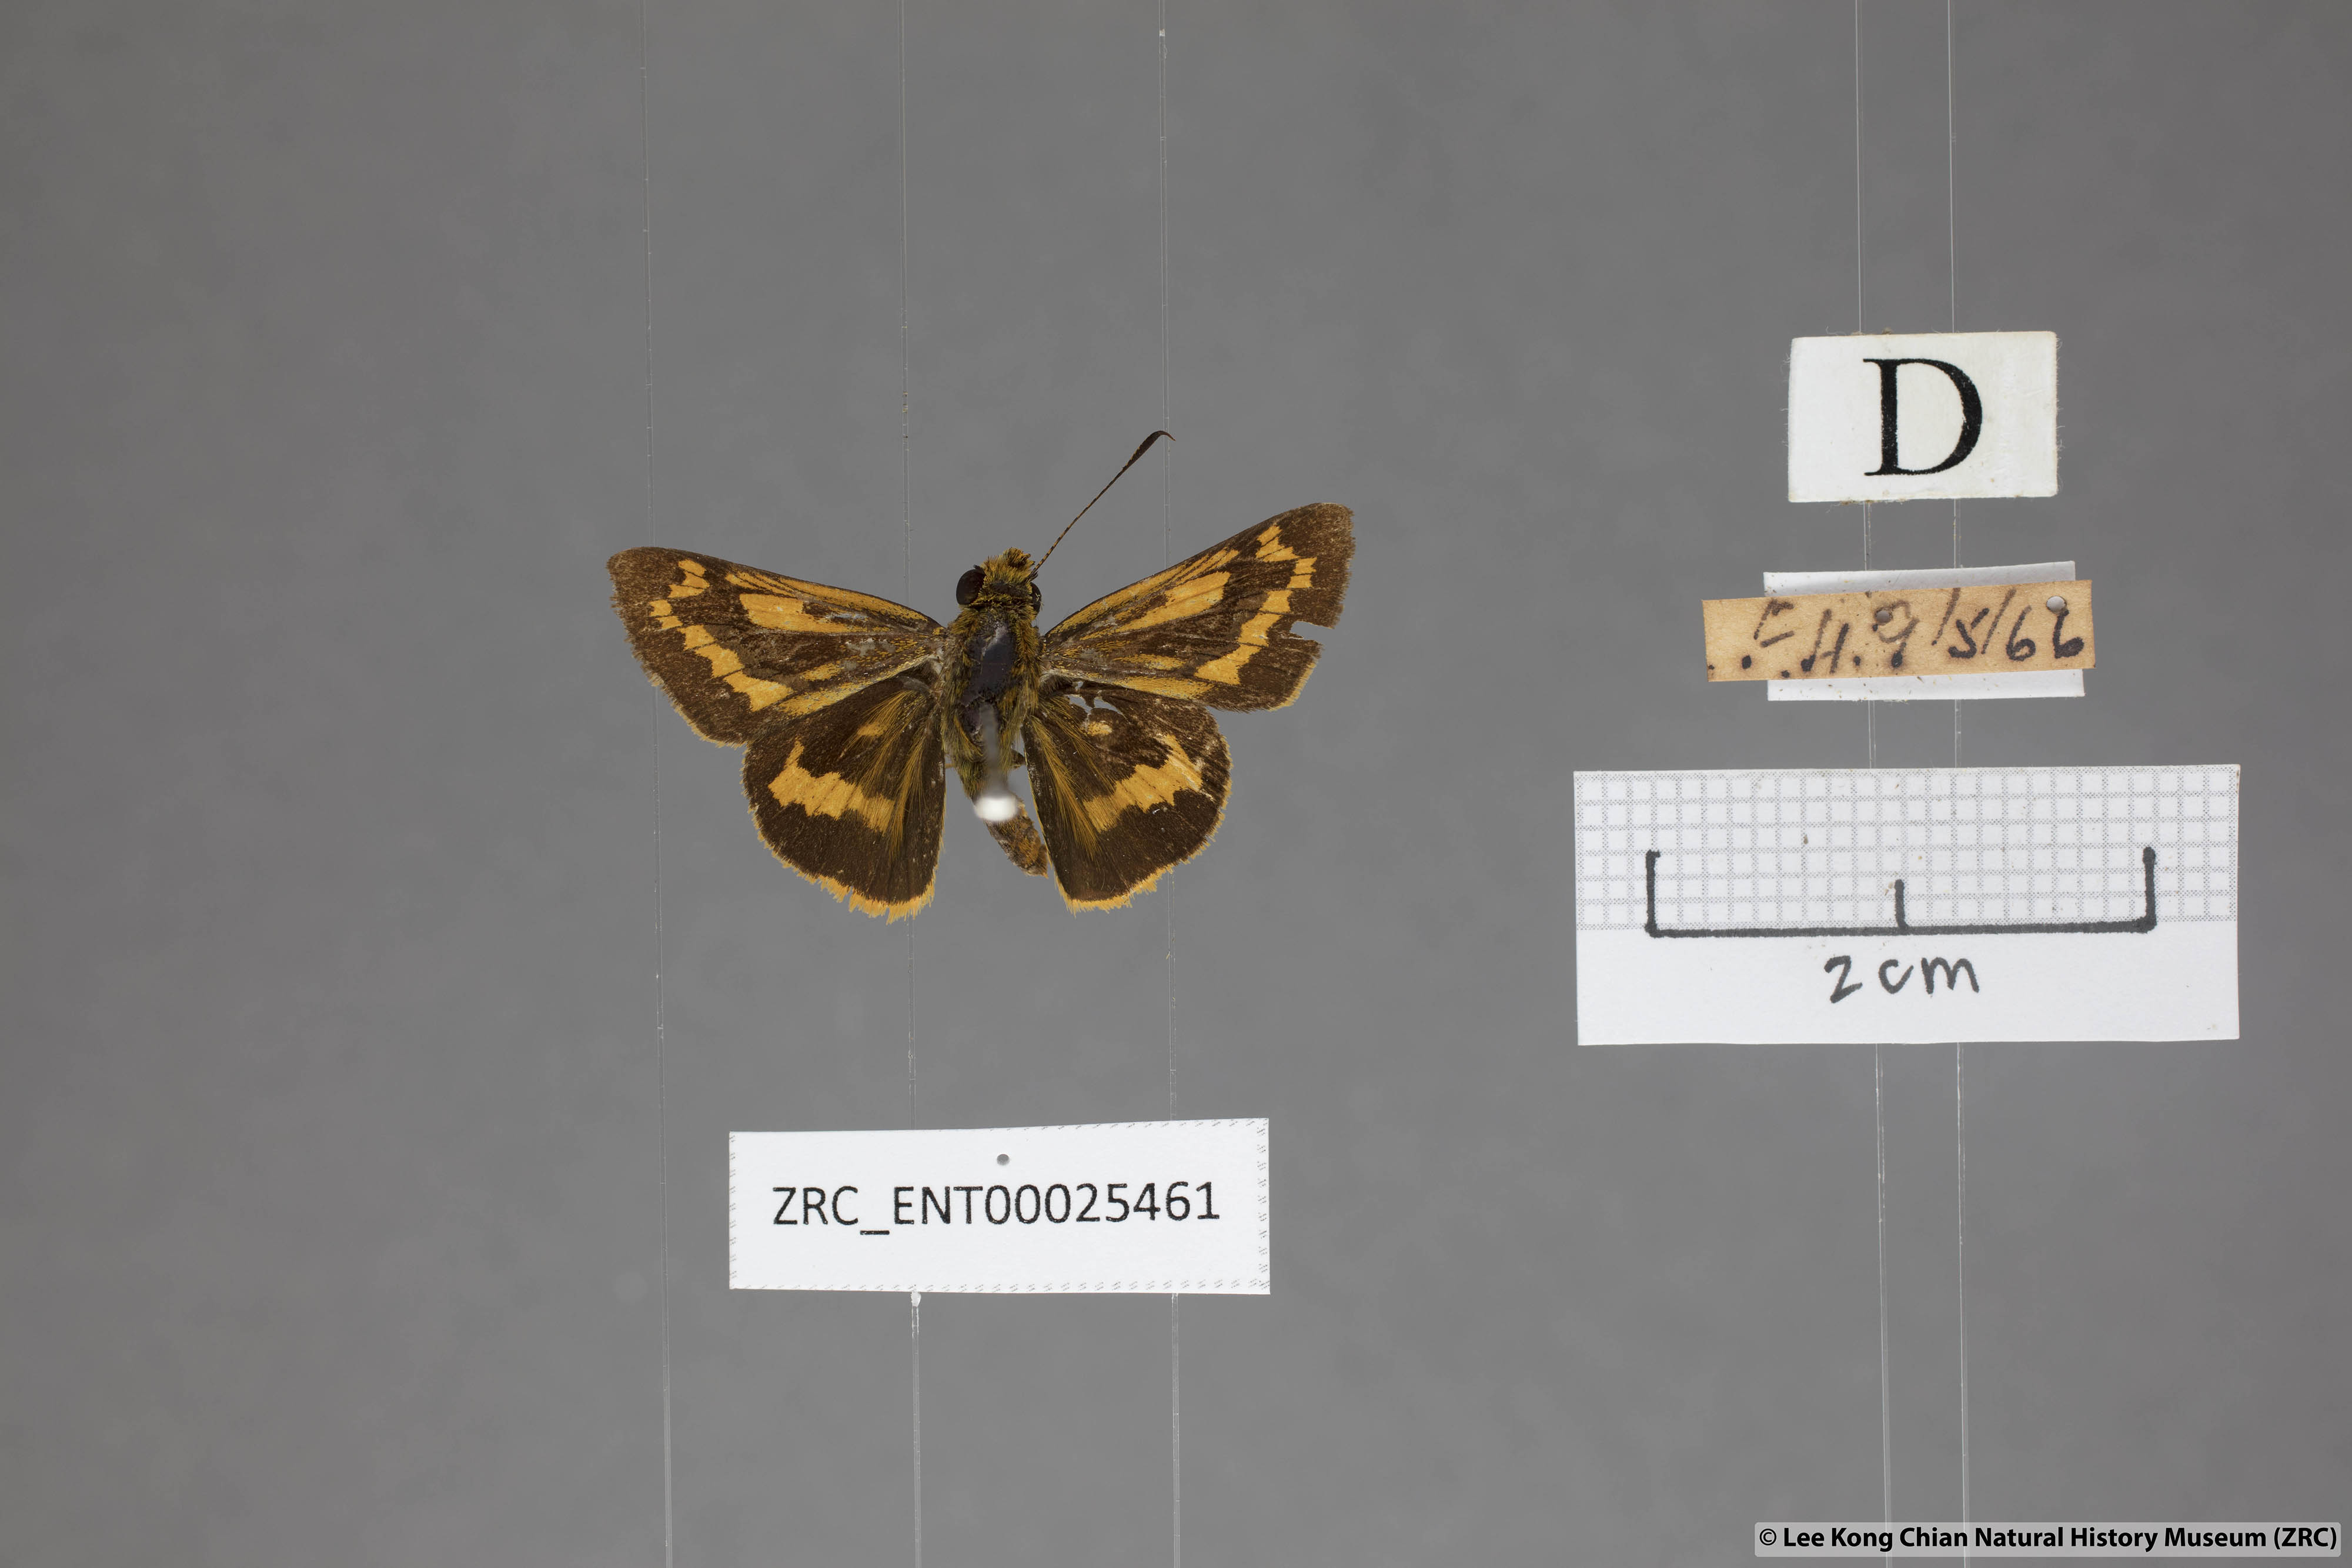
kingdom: Animalia
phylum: Arthropoda
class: Insecta
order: Lepidoptera
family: Hesperiidae
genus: Potanthus
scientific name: Potanthus rectifasciata
